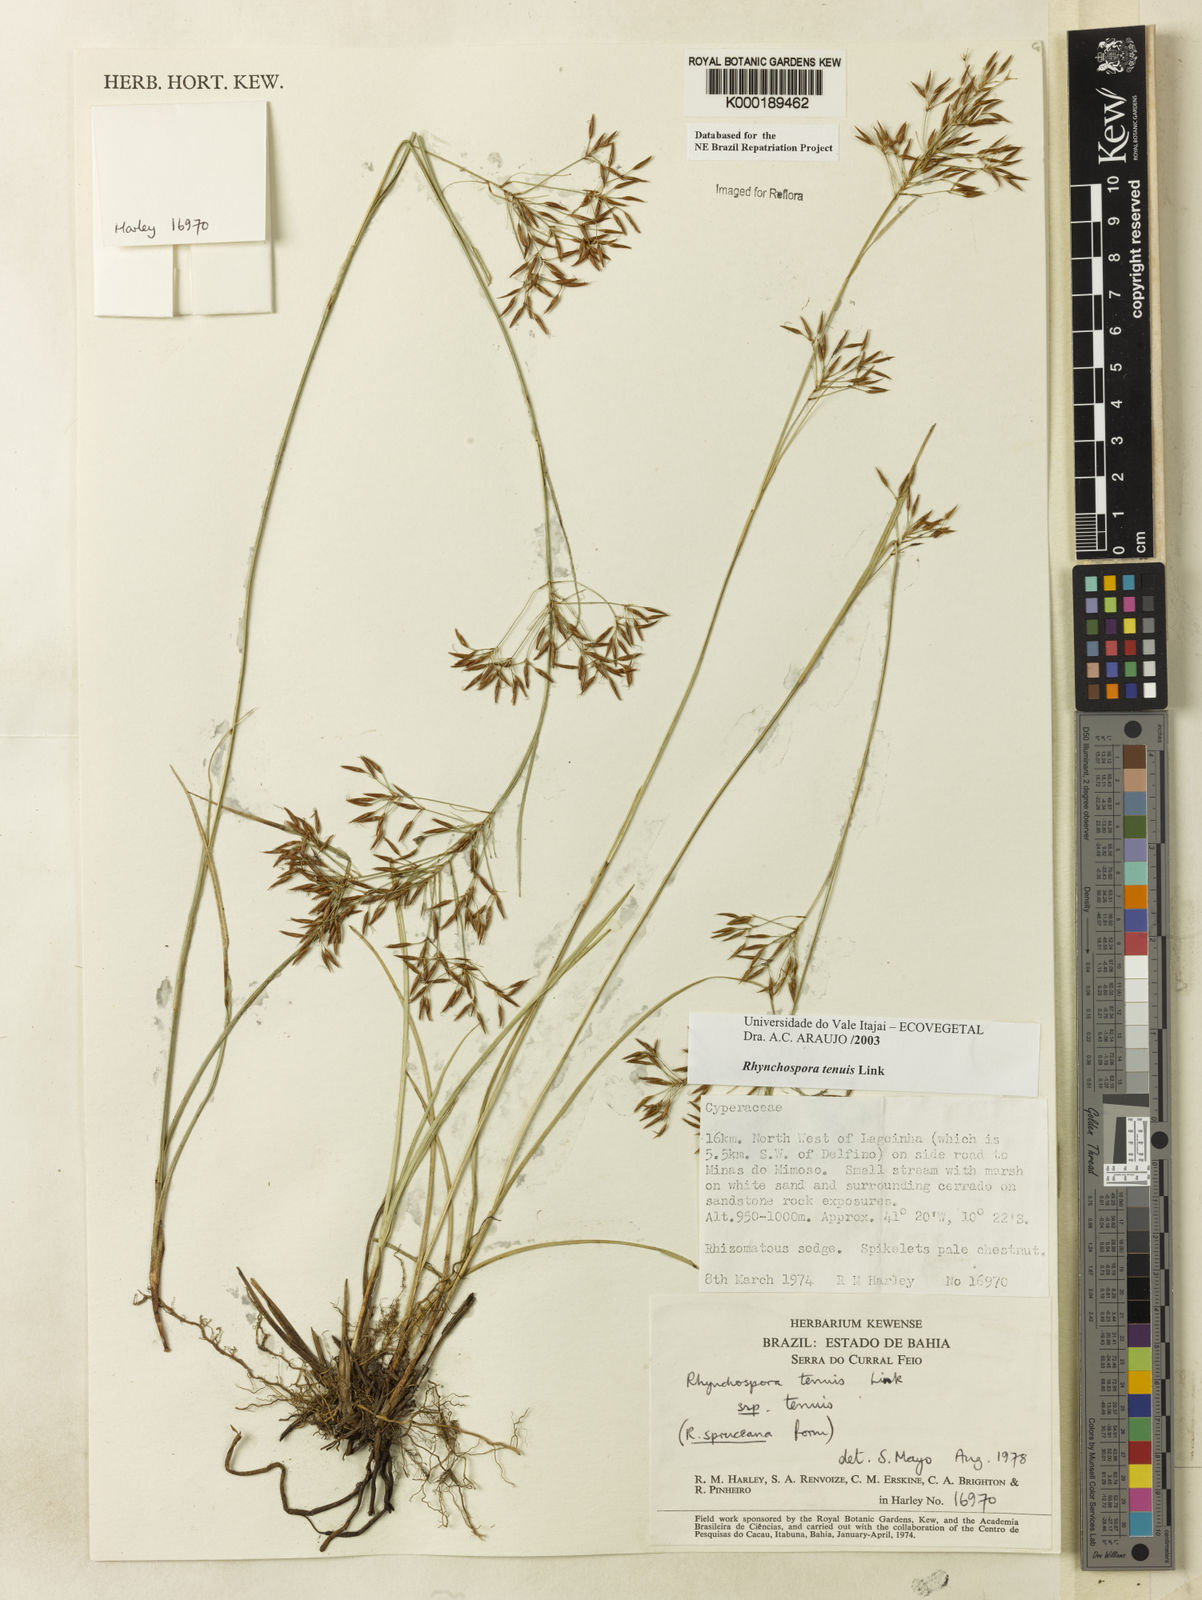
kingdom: Plantae
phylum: Tracheophyta
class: Liliopsida
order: Poales
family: Cyperaceae
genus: Rhynchospora
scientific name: Rhynchospora tenuis
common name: Quill beaksedge
